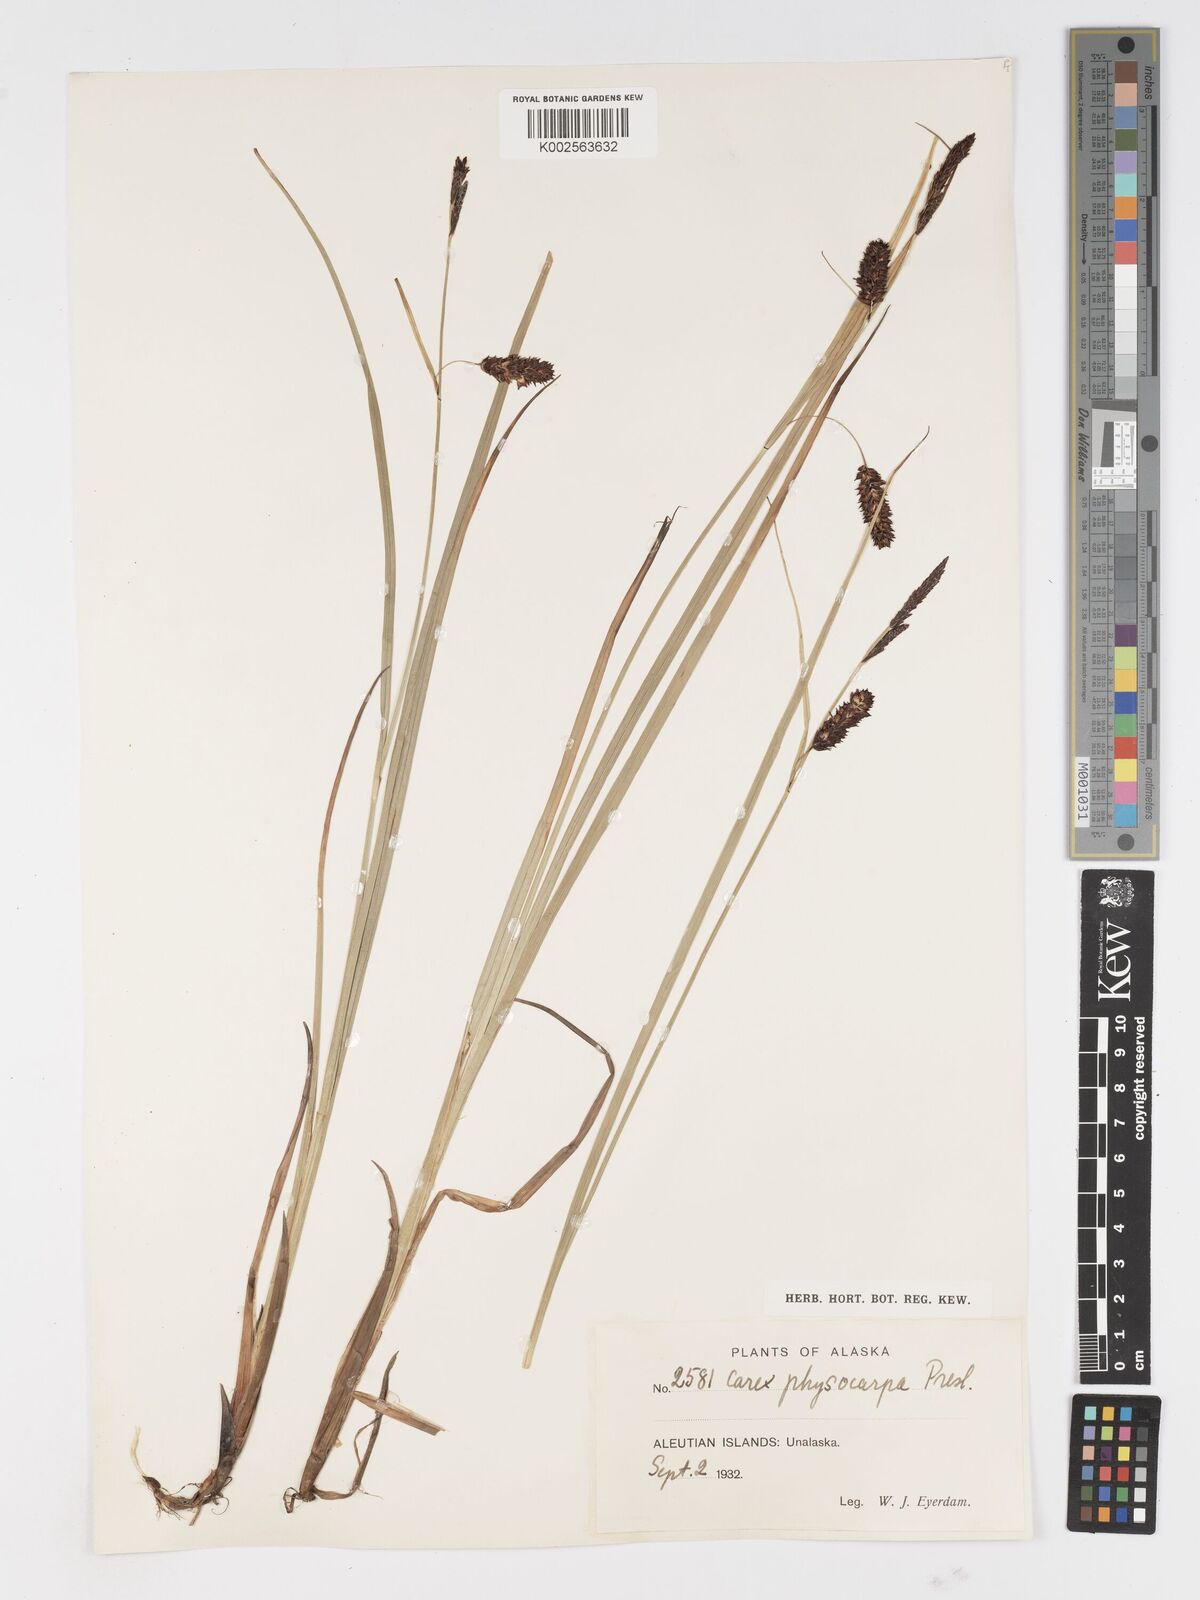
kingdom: Plantae
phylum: Tracheophyta
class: Liliopsida
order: Poales
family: Cyperaceae
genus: Carex
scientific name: Carex saxatilis
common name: Russet sedge
